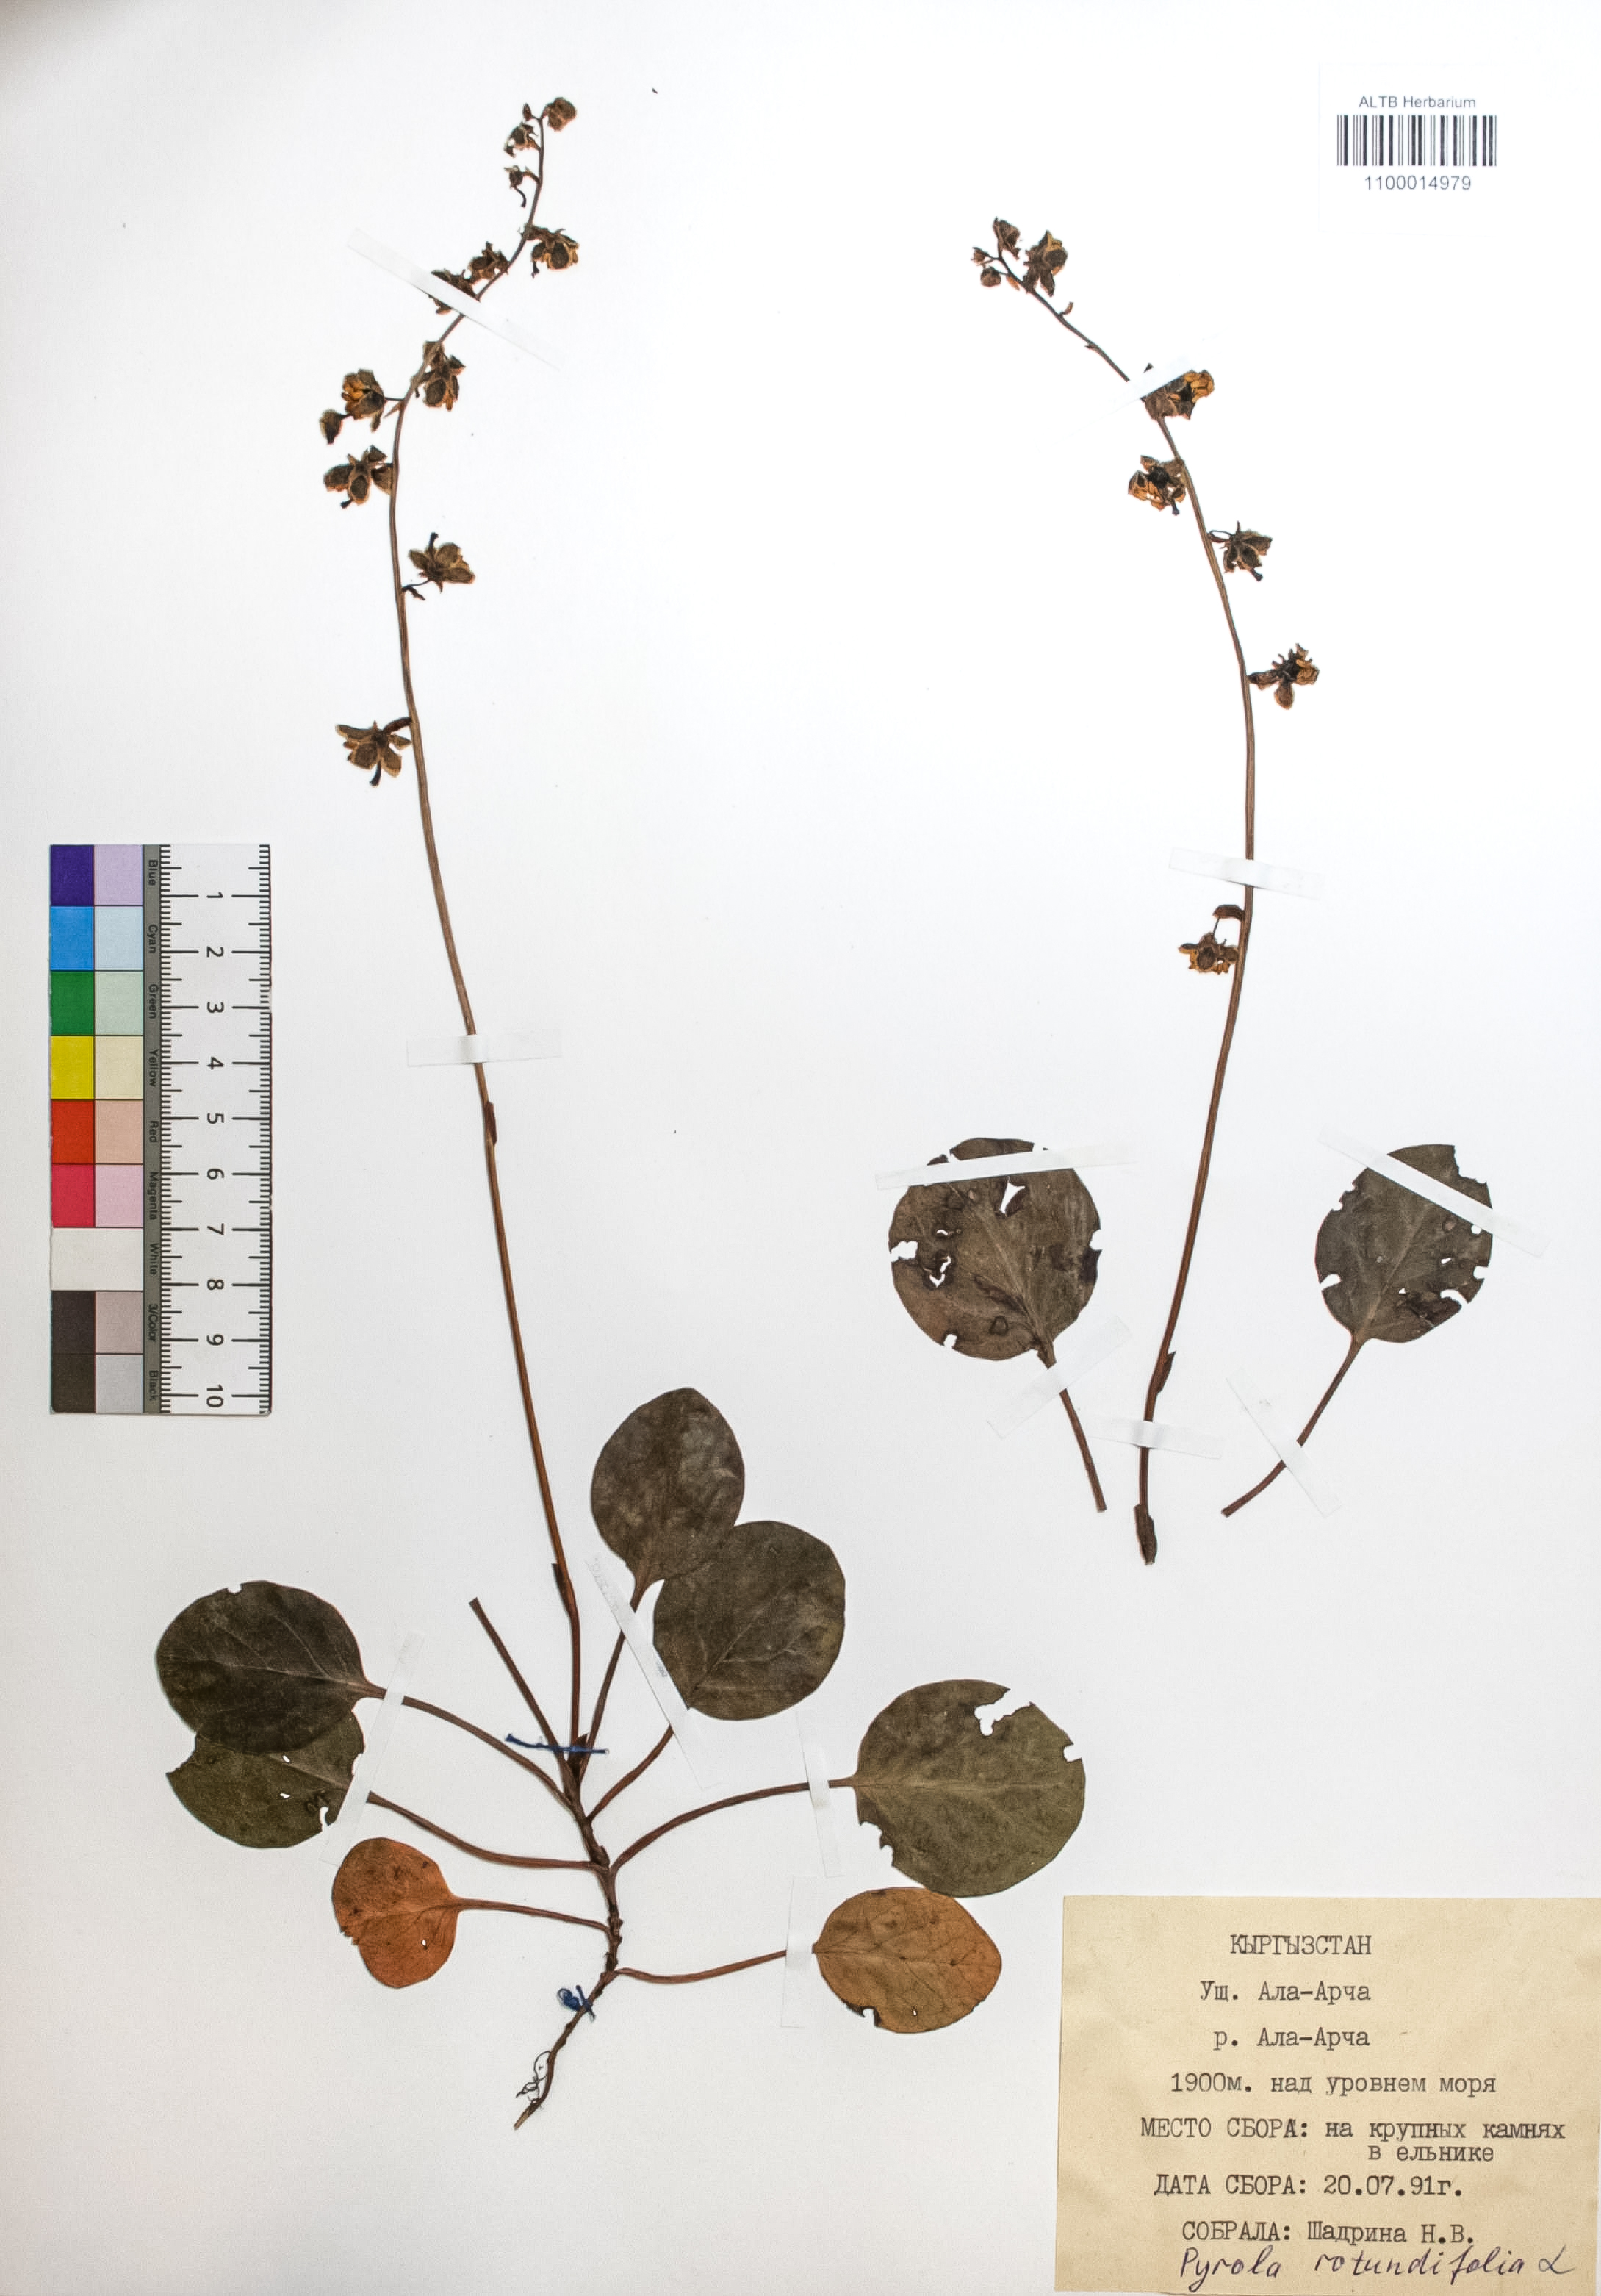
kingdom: Plantae
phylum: Tracheophyta
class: Magnoliopsida
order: Ericales
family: Ericaceae
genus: Pyrola
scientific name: Pyrola rotundifolia
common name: Round-leaved wintergreen
